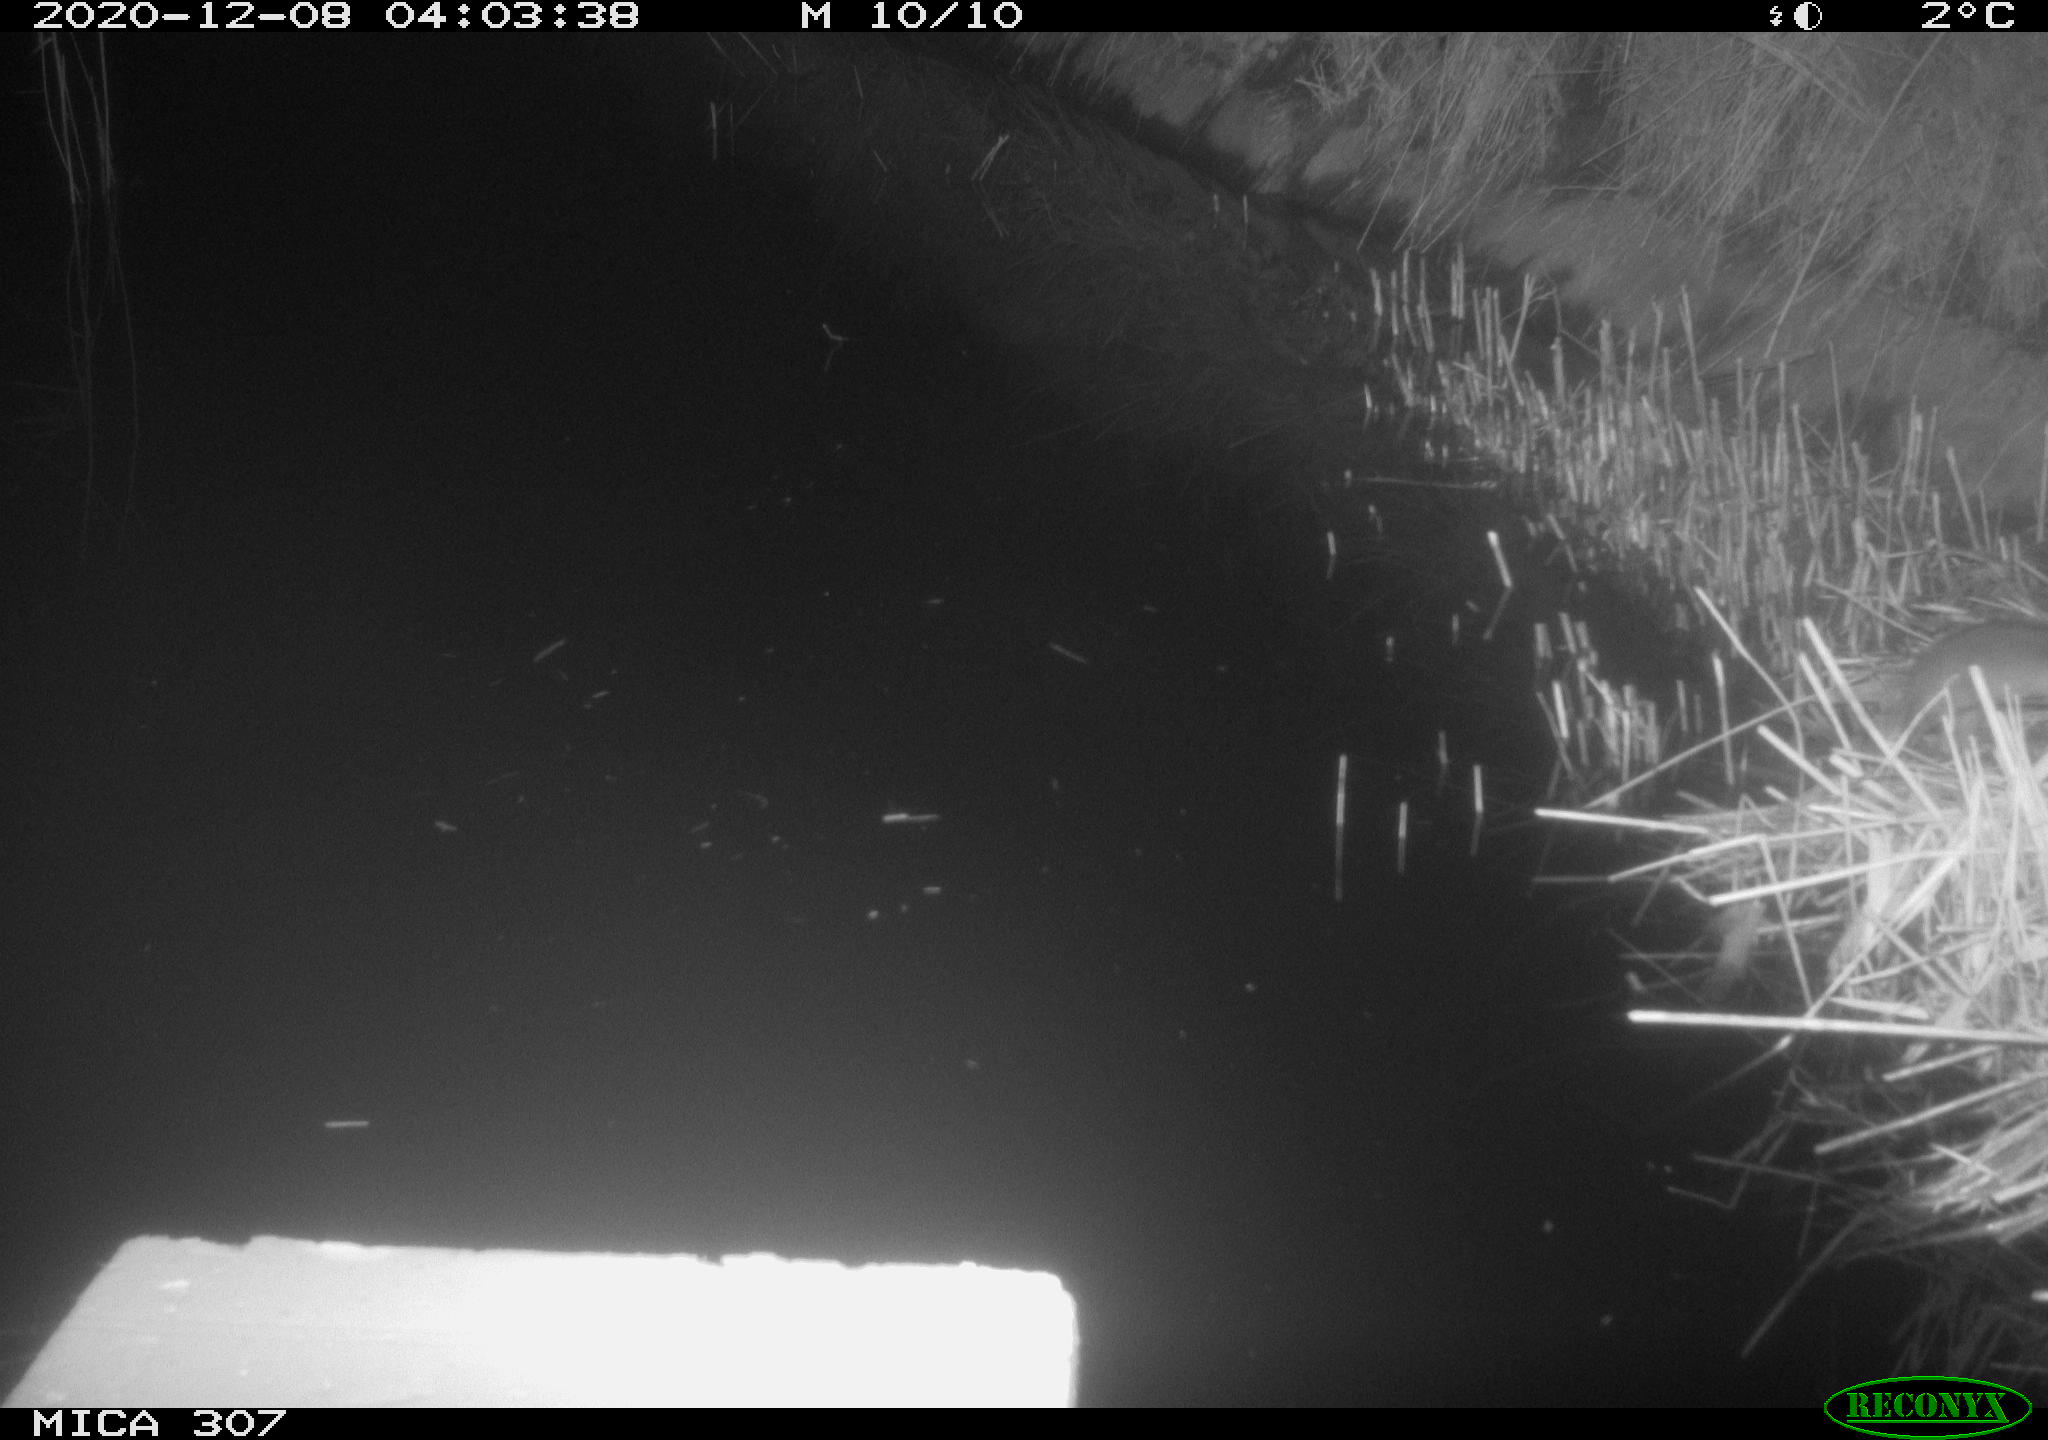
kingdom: Animalia
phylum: Chordata
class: Mammalia
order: Rodentia
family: Muridae
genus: Rattus
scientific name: Rattus norvegicus
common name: Brown rat
